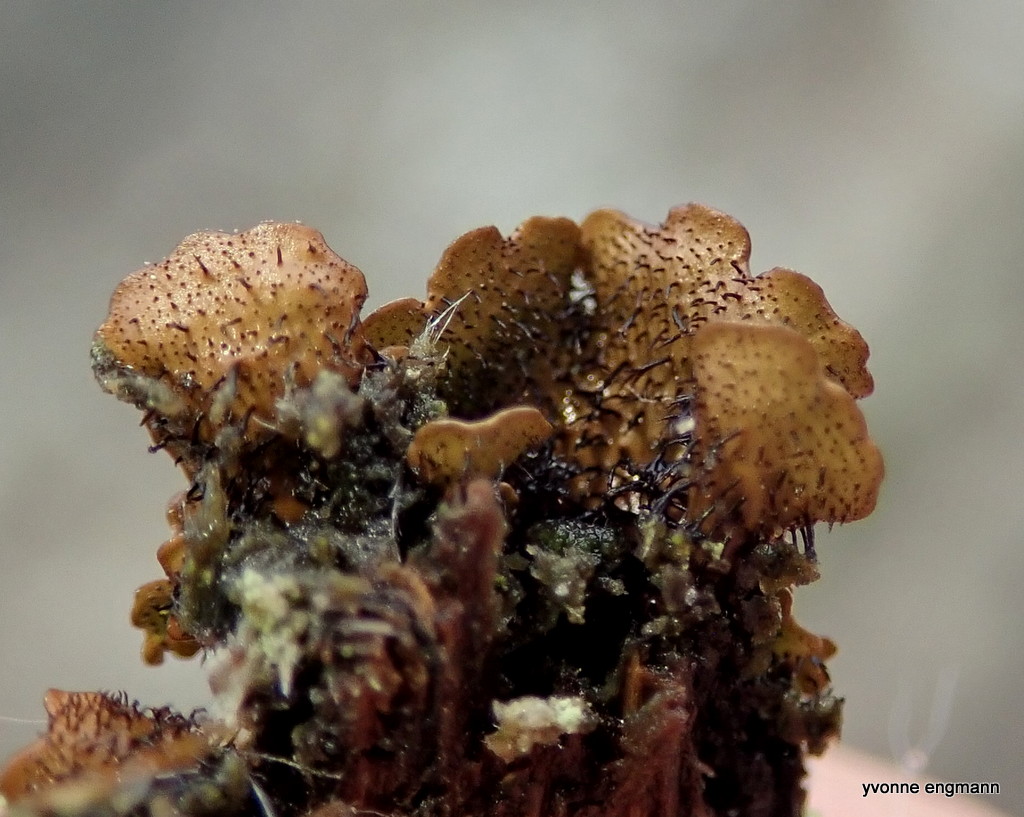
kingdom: Fungi
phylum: Ascomycota
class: Lecanoromycetes
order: Lecanorales
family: Parmeliaceae
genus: Parmelia
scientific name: Parmelia
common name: farve-skållav
